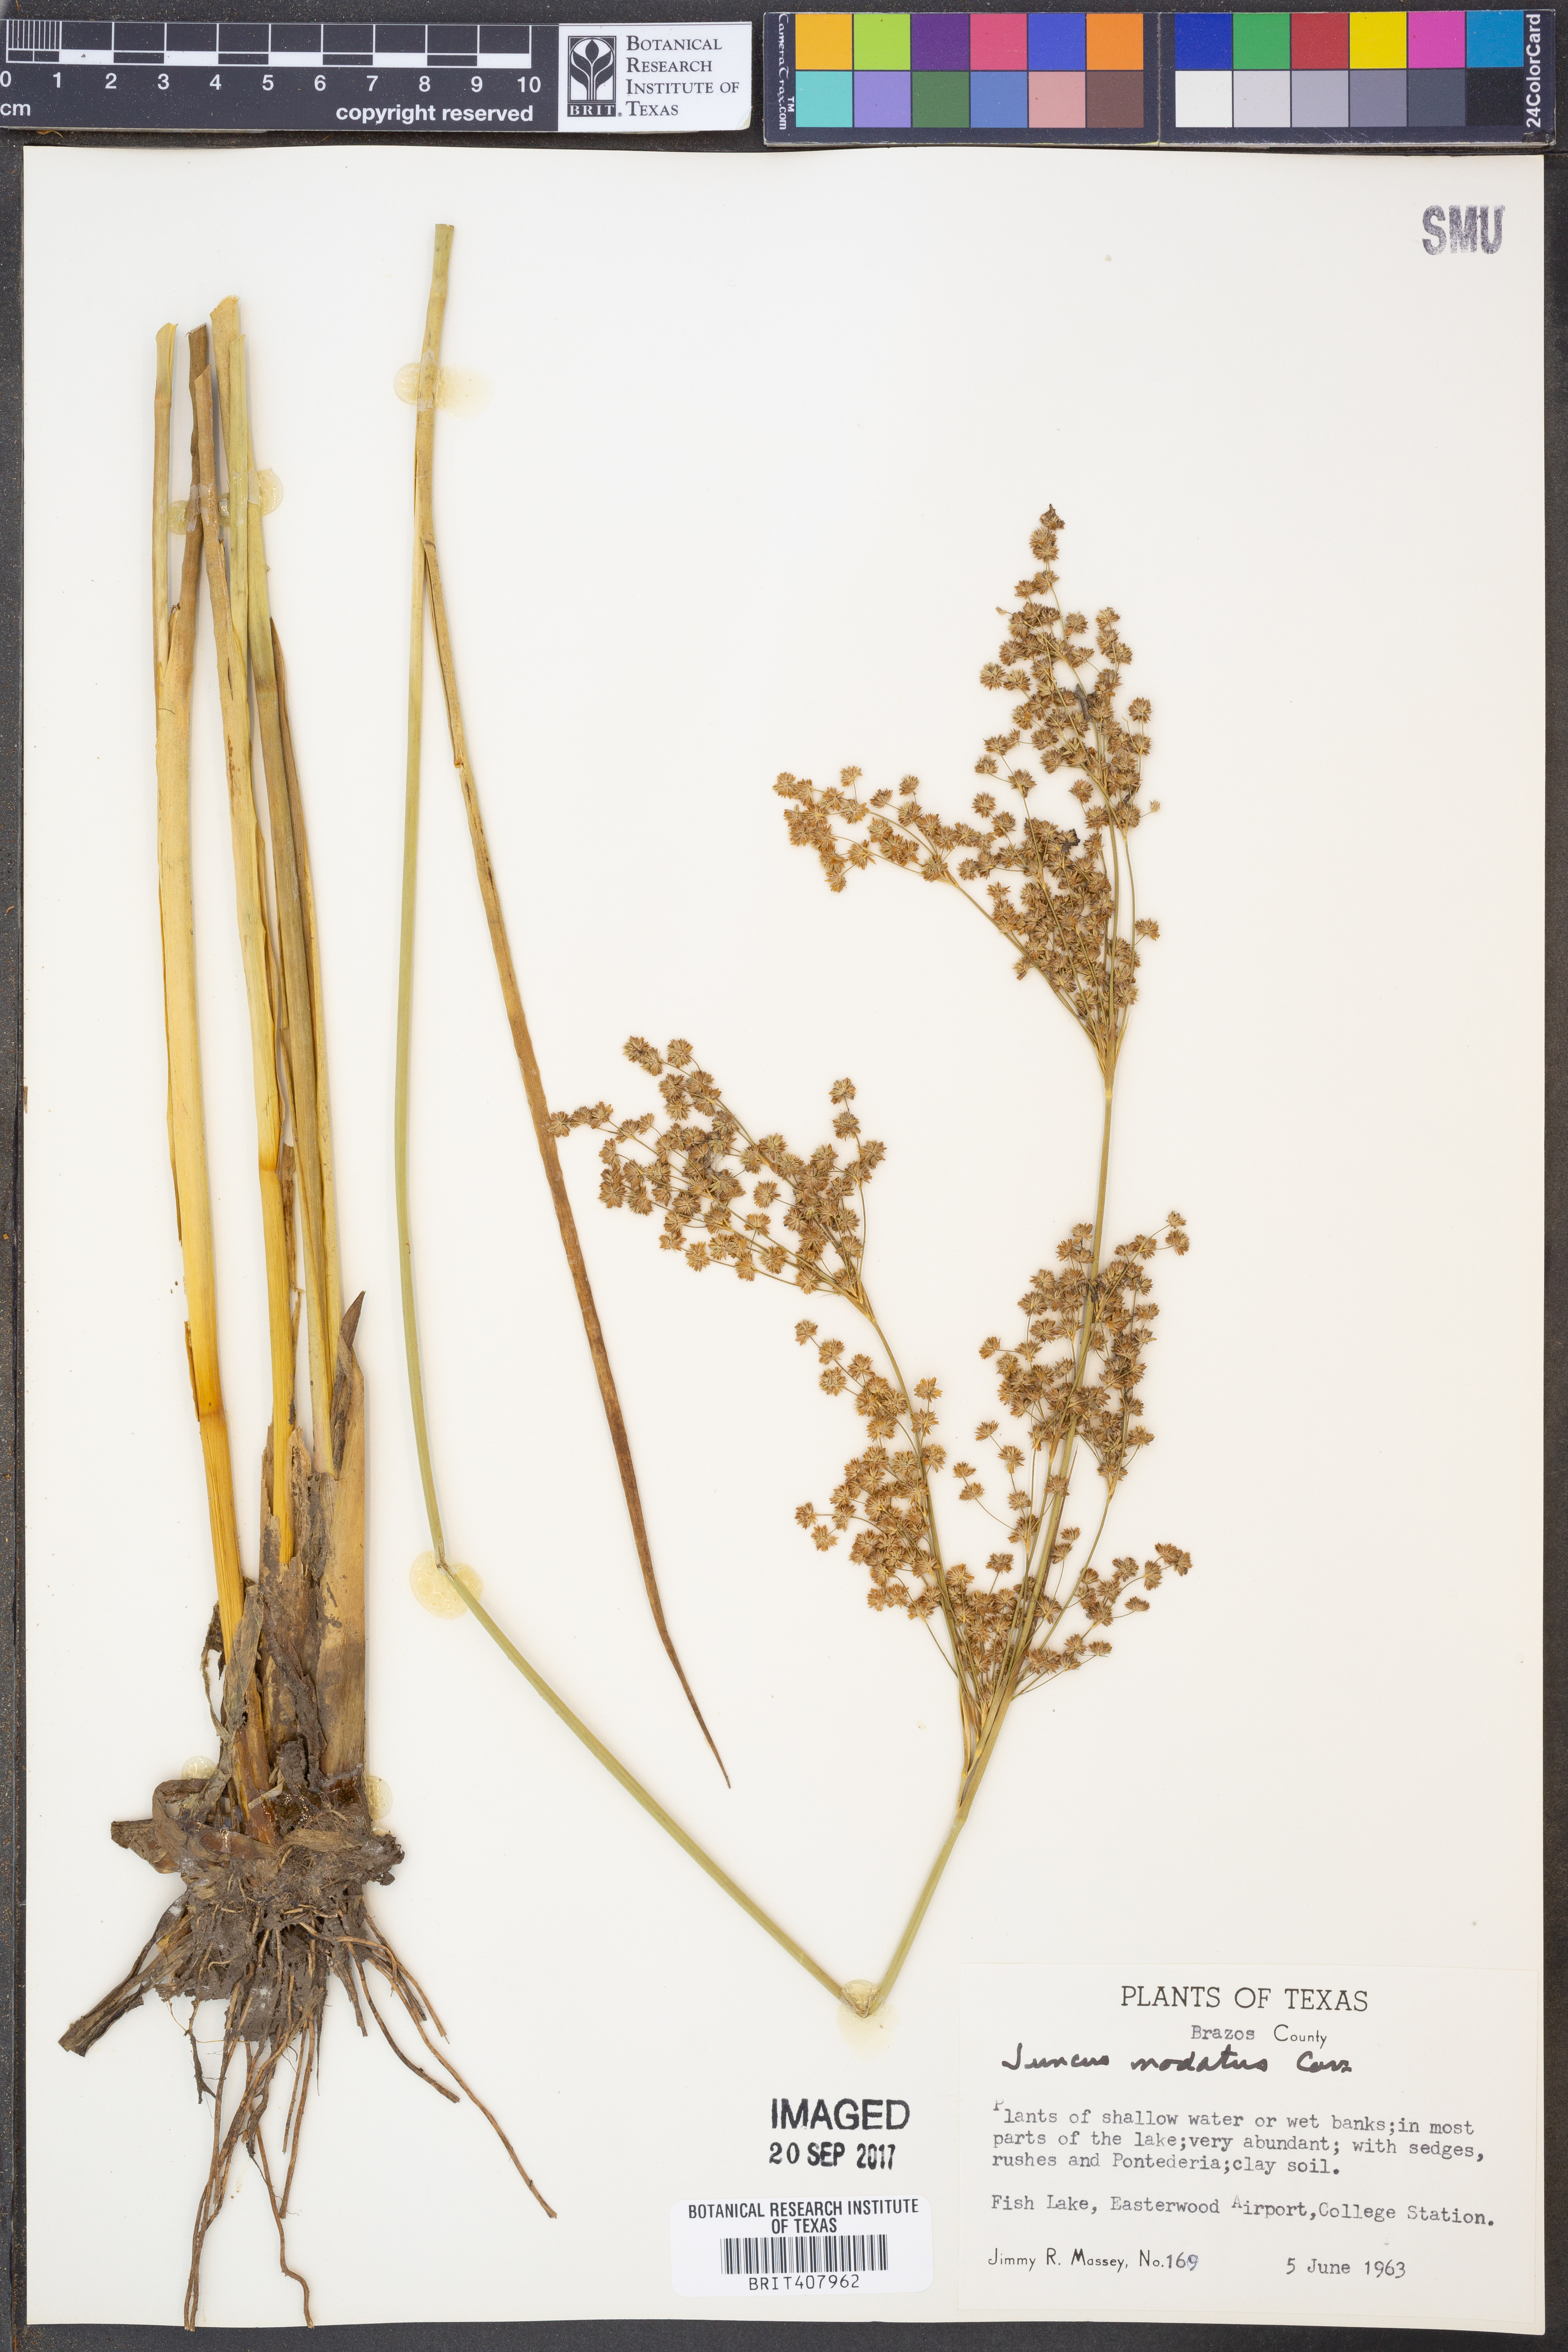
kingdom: Plantae
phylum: Tracheophyta
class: Liliopsida
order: Poales
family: Juncaceae
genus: Juncus
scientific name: Juncus nodatus
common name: Stout rush
